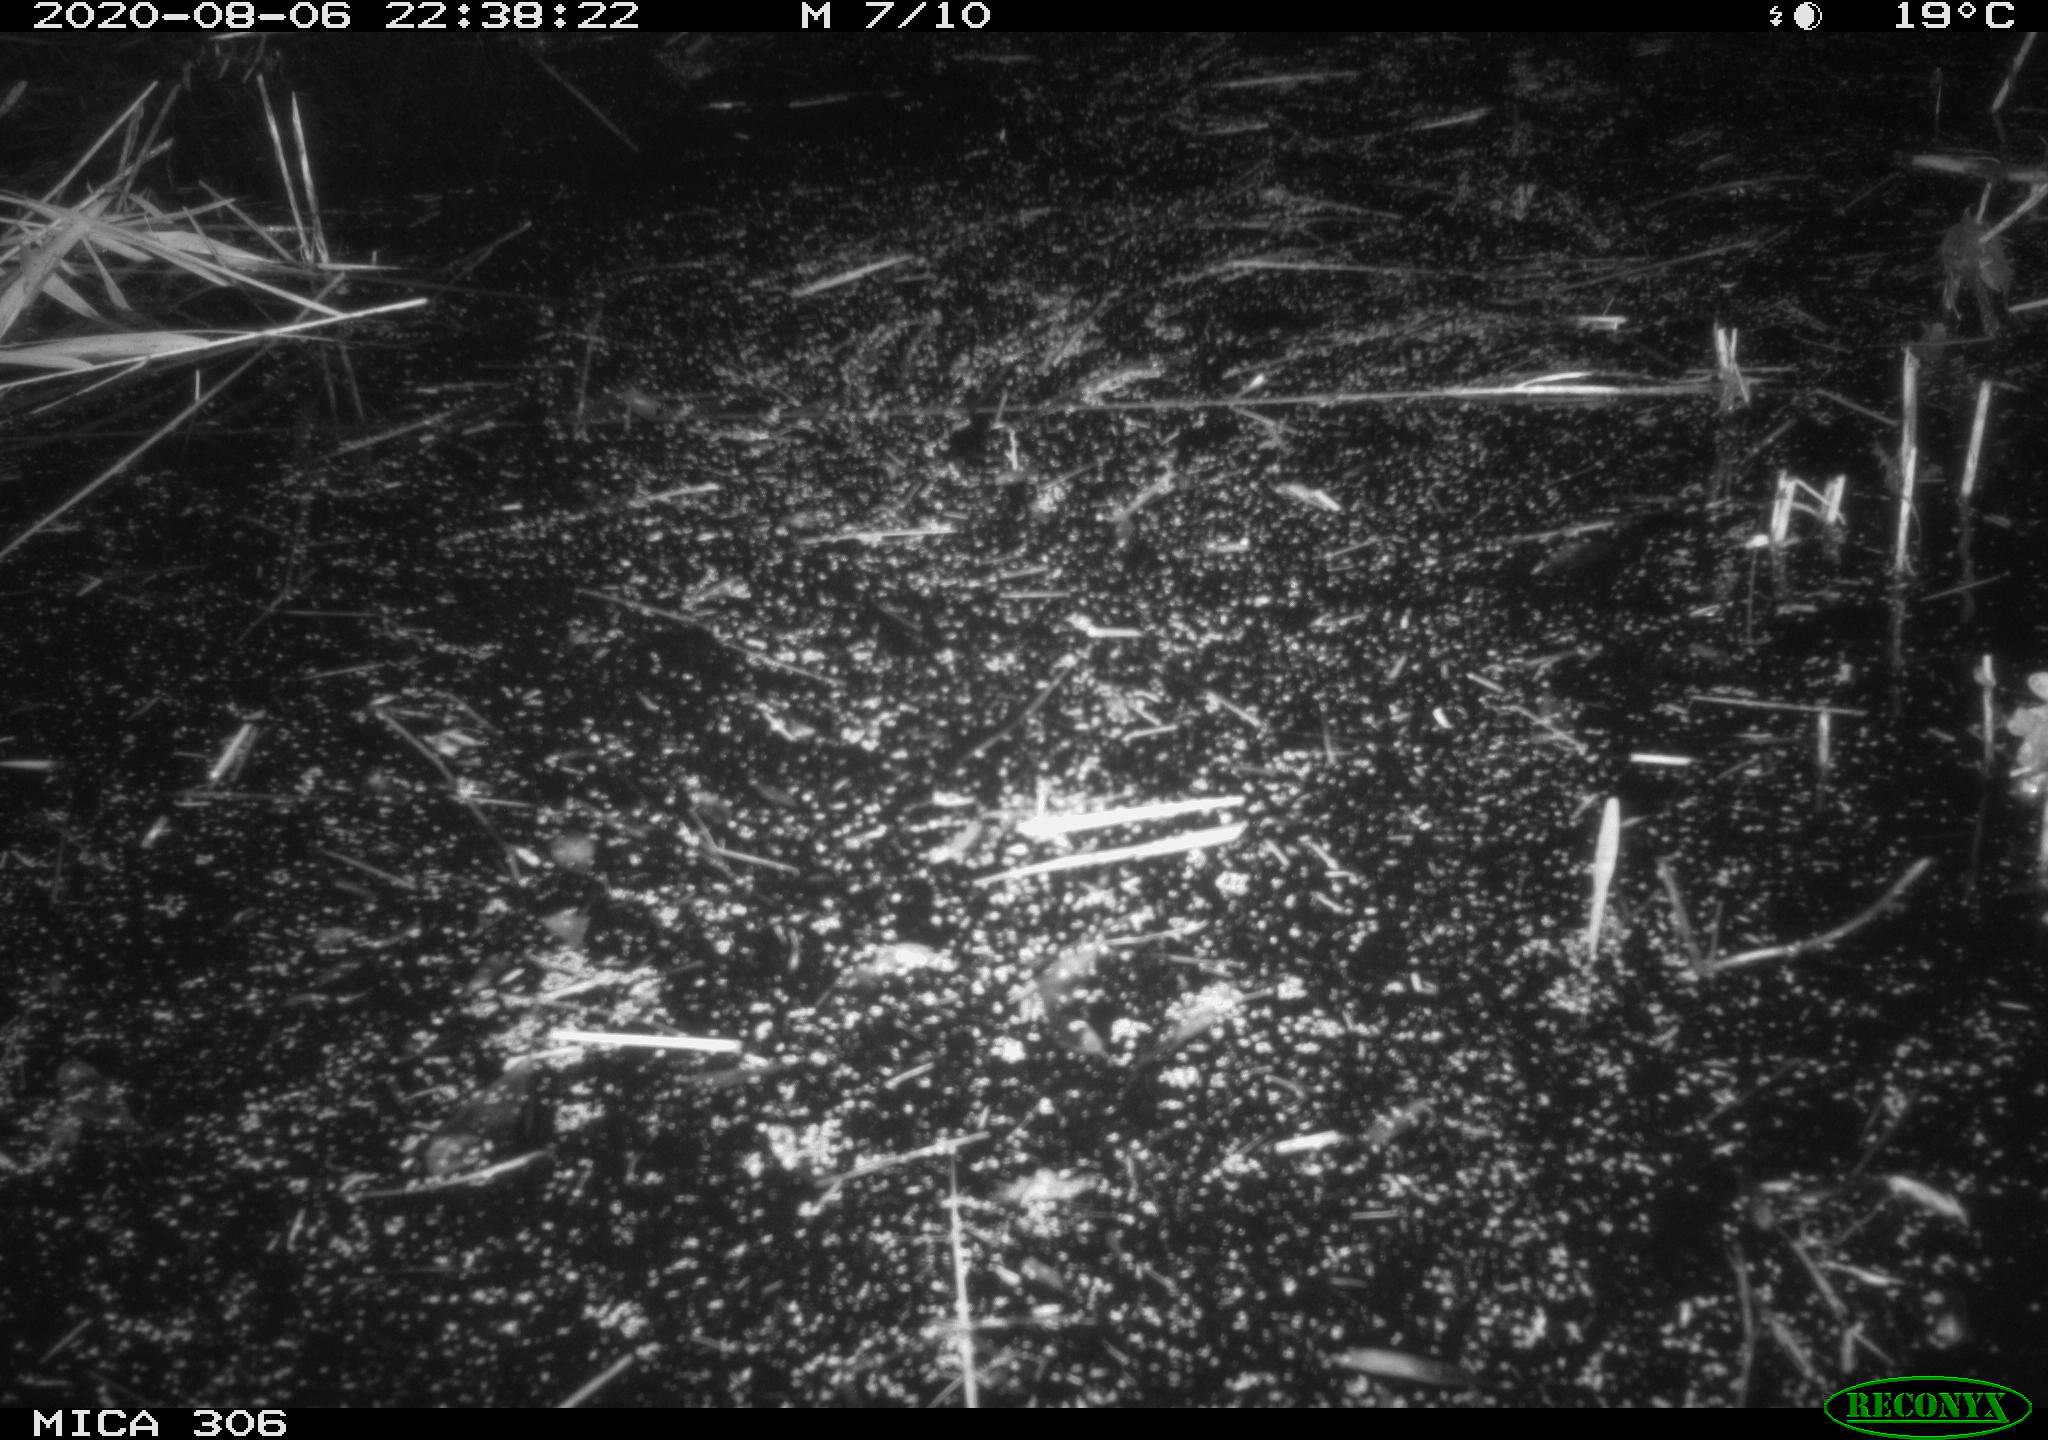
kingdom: Animalia
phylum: Chordata
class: Mammalia
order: Rodentia
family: Muridae
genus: Rattus
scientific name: Rattus norvegicus
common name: Brown rat
